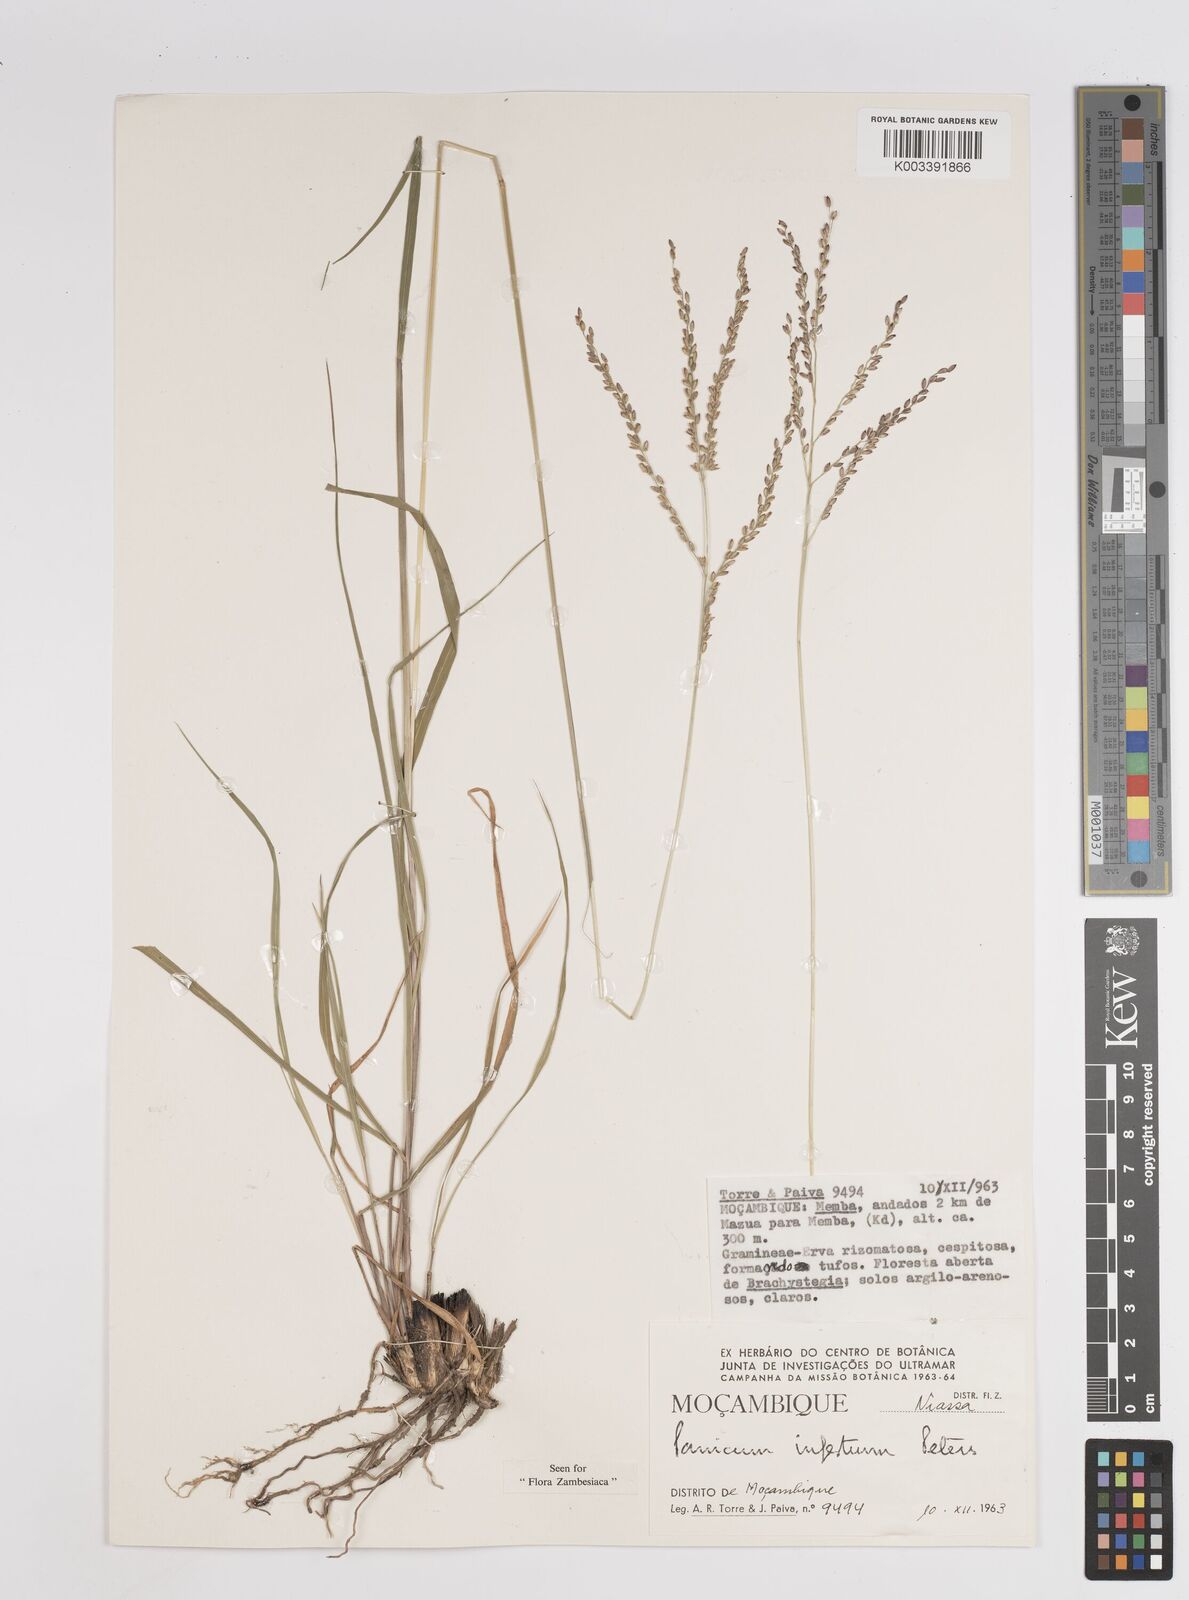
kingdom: Plantae
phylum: Tracheophyta
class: Liliopsida
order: Poales
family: Poaceae
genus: Megathyrsus
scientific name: Megathyrsus infestus
